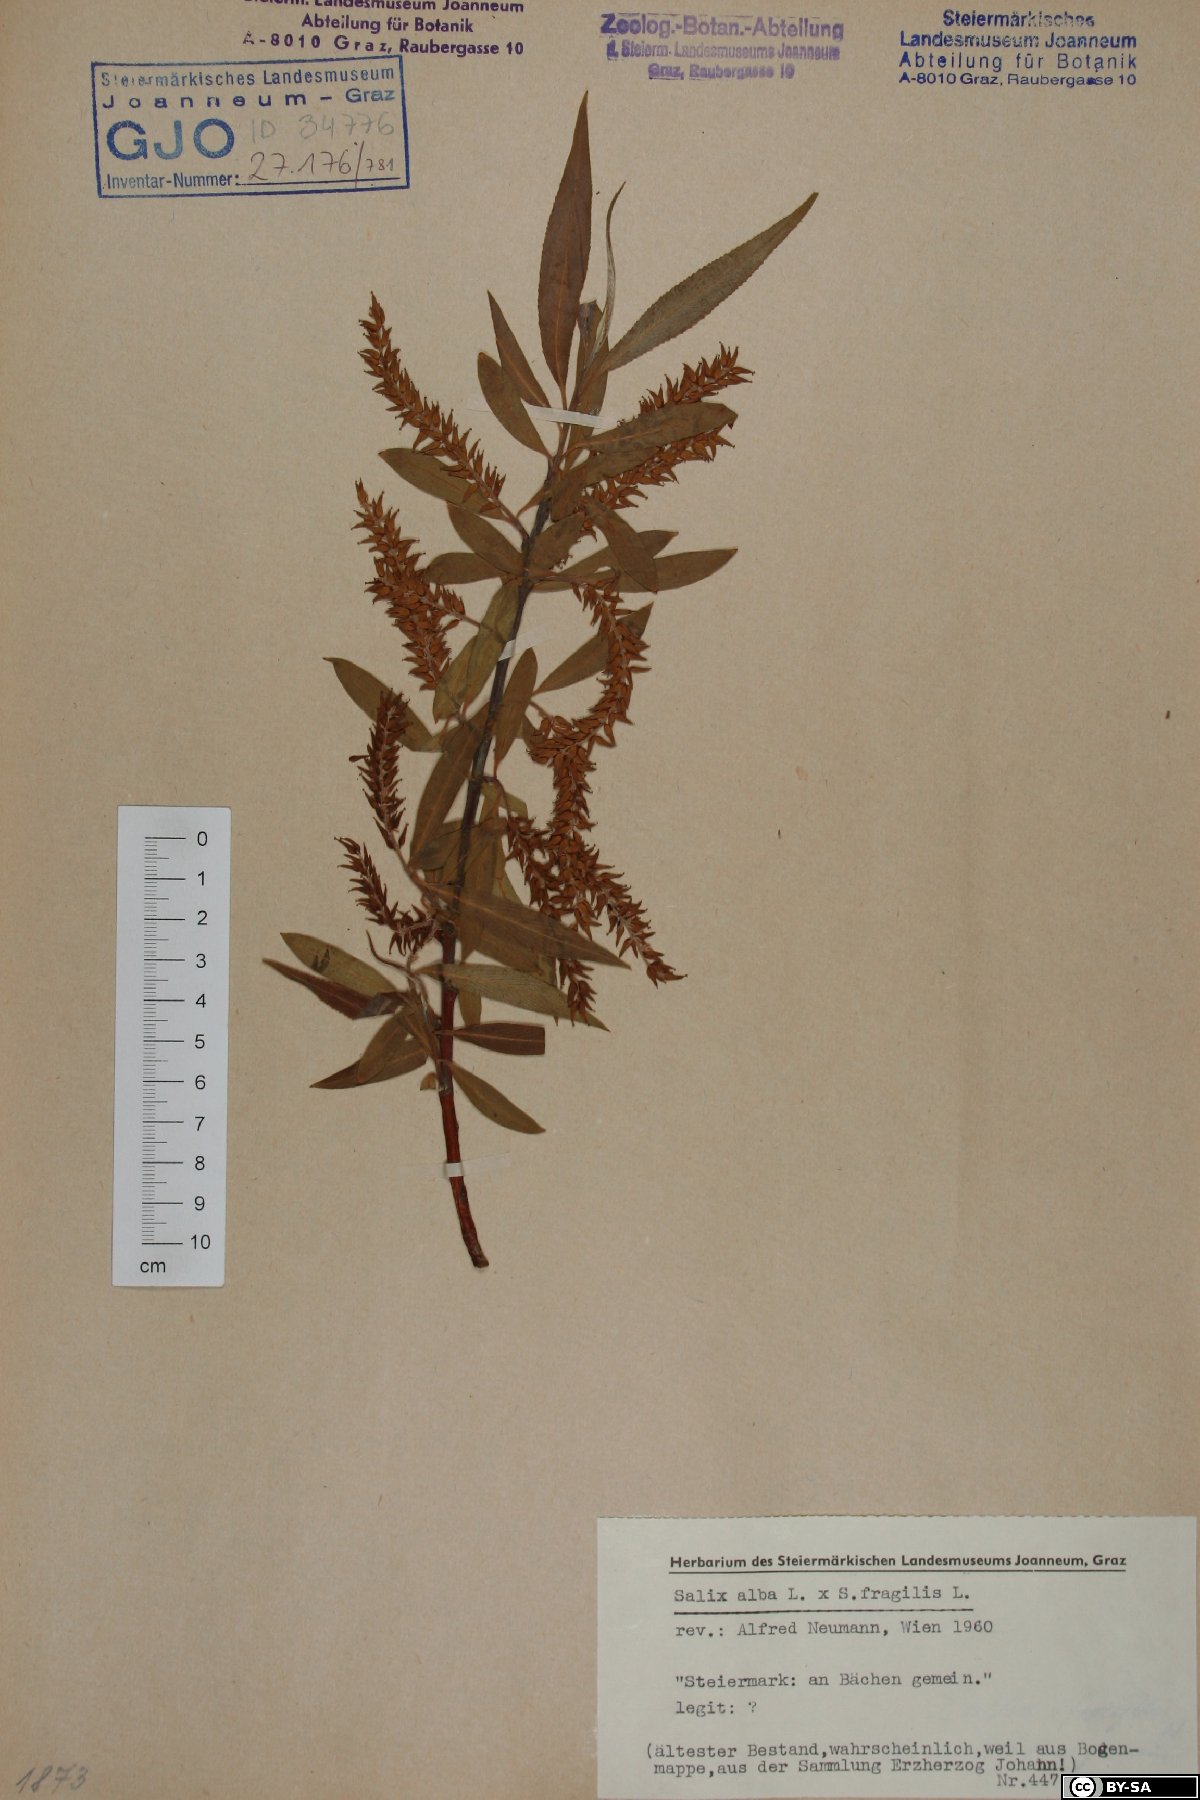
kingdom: Plantae
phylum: Tracheophyta
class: Magnoliopsida
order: Malpighiales
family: Salicaceae
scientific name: Salicaceae
